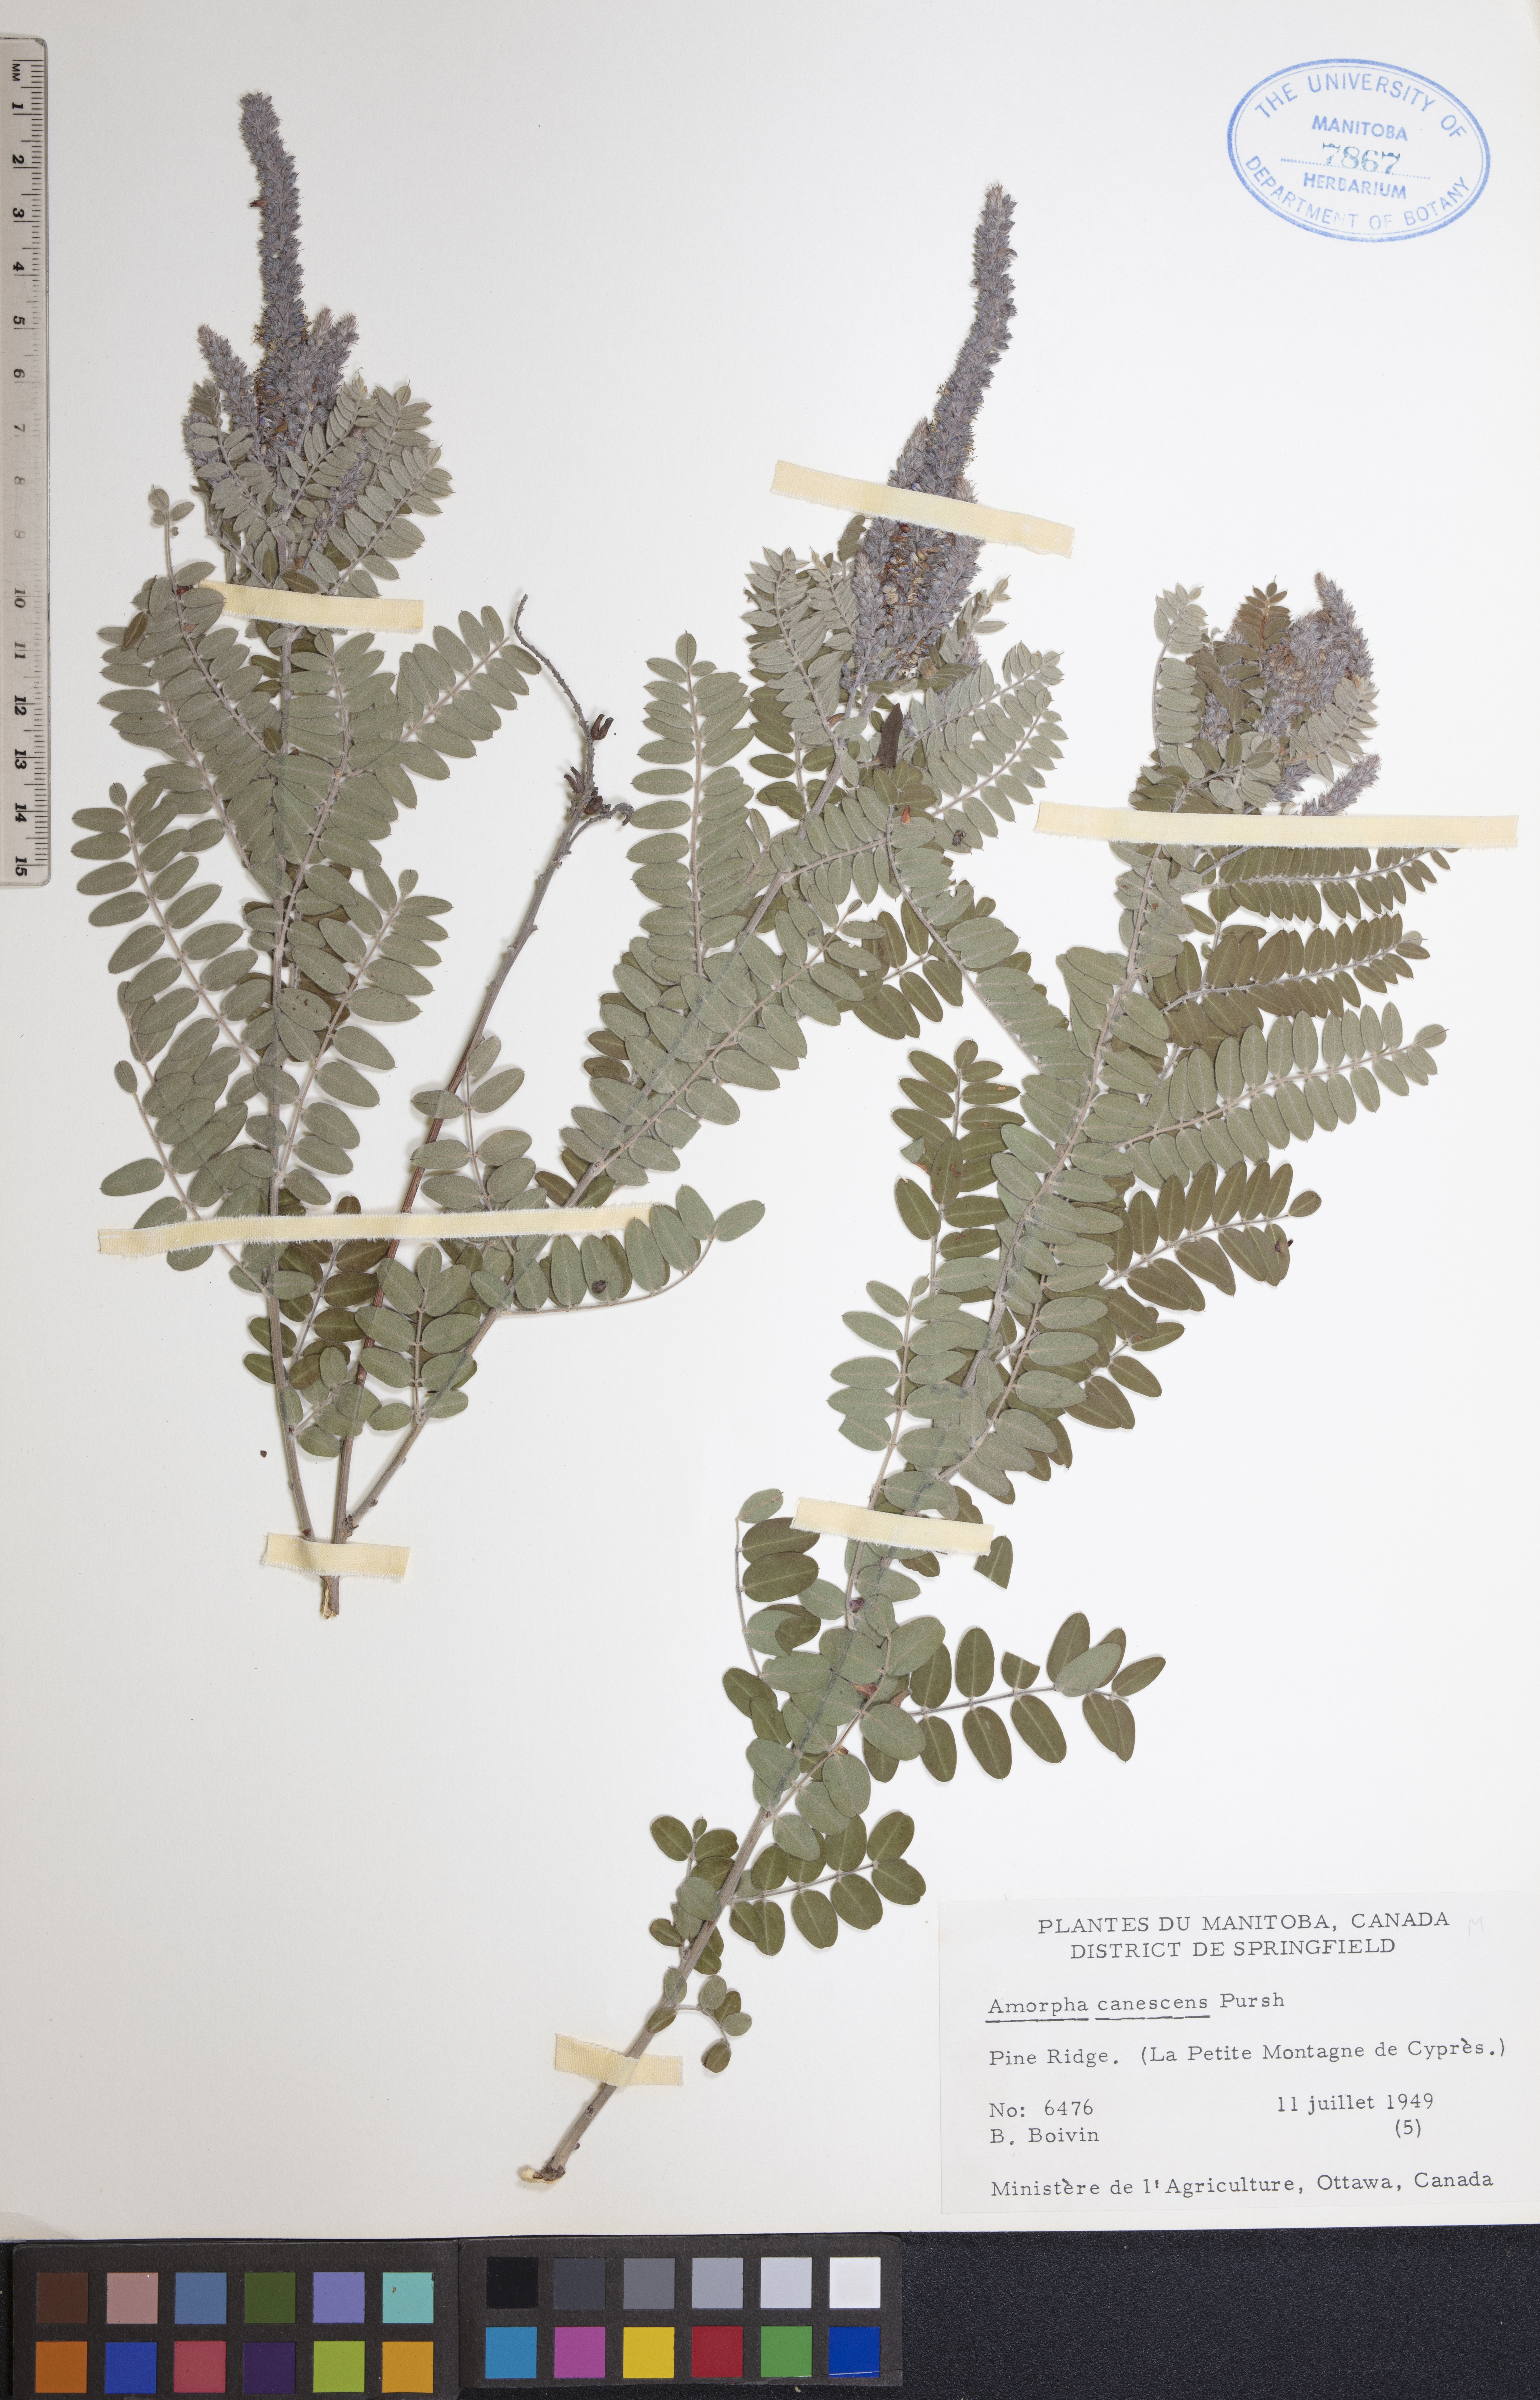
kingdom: Plantae
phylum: Tracheophyta
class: Magnoliopsida
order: Fabales
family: Fabaceae
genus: Amorpha
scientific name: Amorpha canescens
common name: Leadplant
